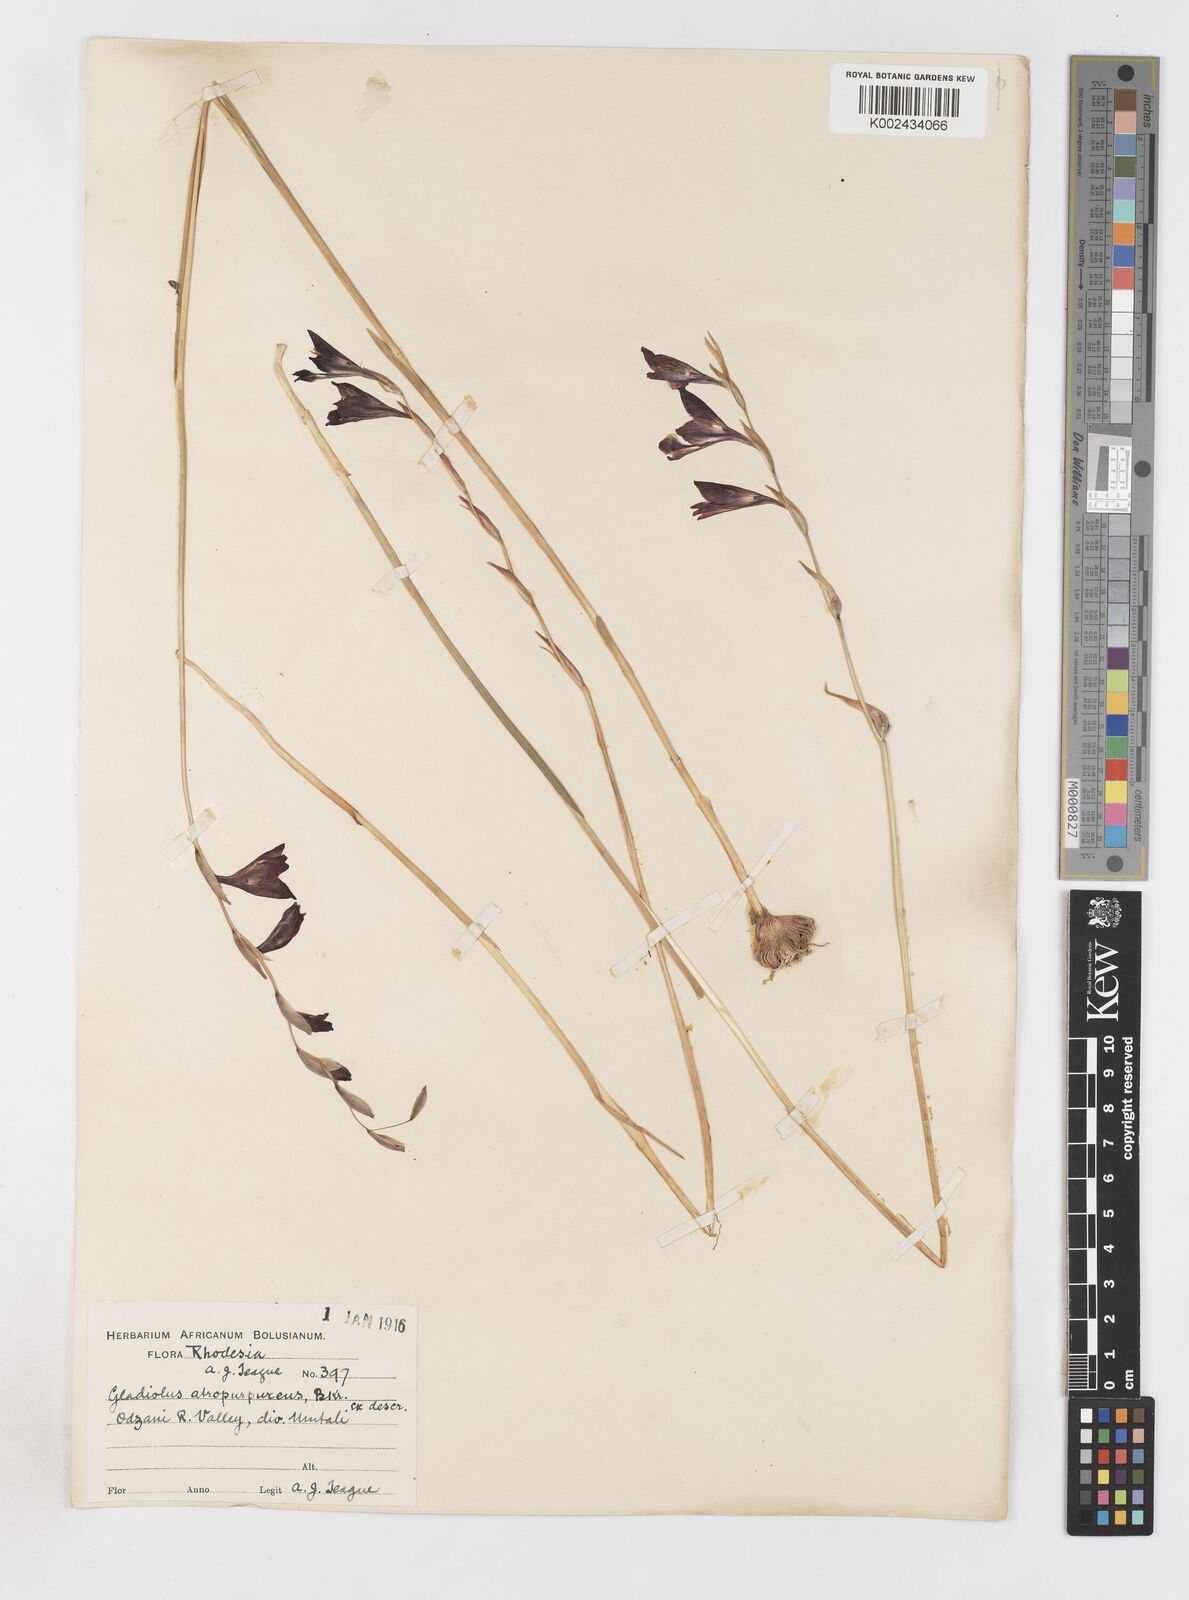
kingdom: Plantae
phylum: Tracheophyta
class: Liliopsida
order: Asparagales
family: Iridaceae
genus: Gladiolus
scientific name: Gladiolus atropurpureus
